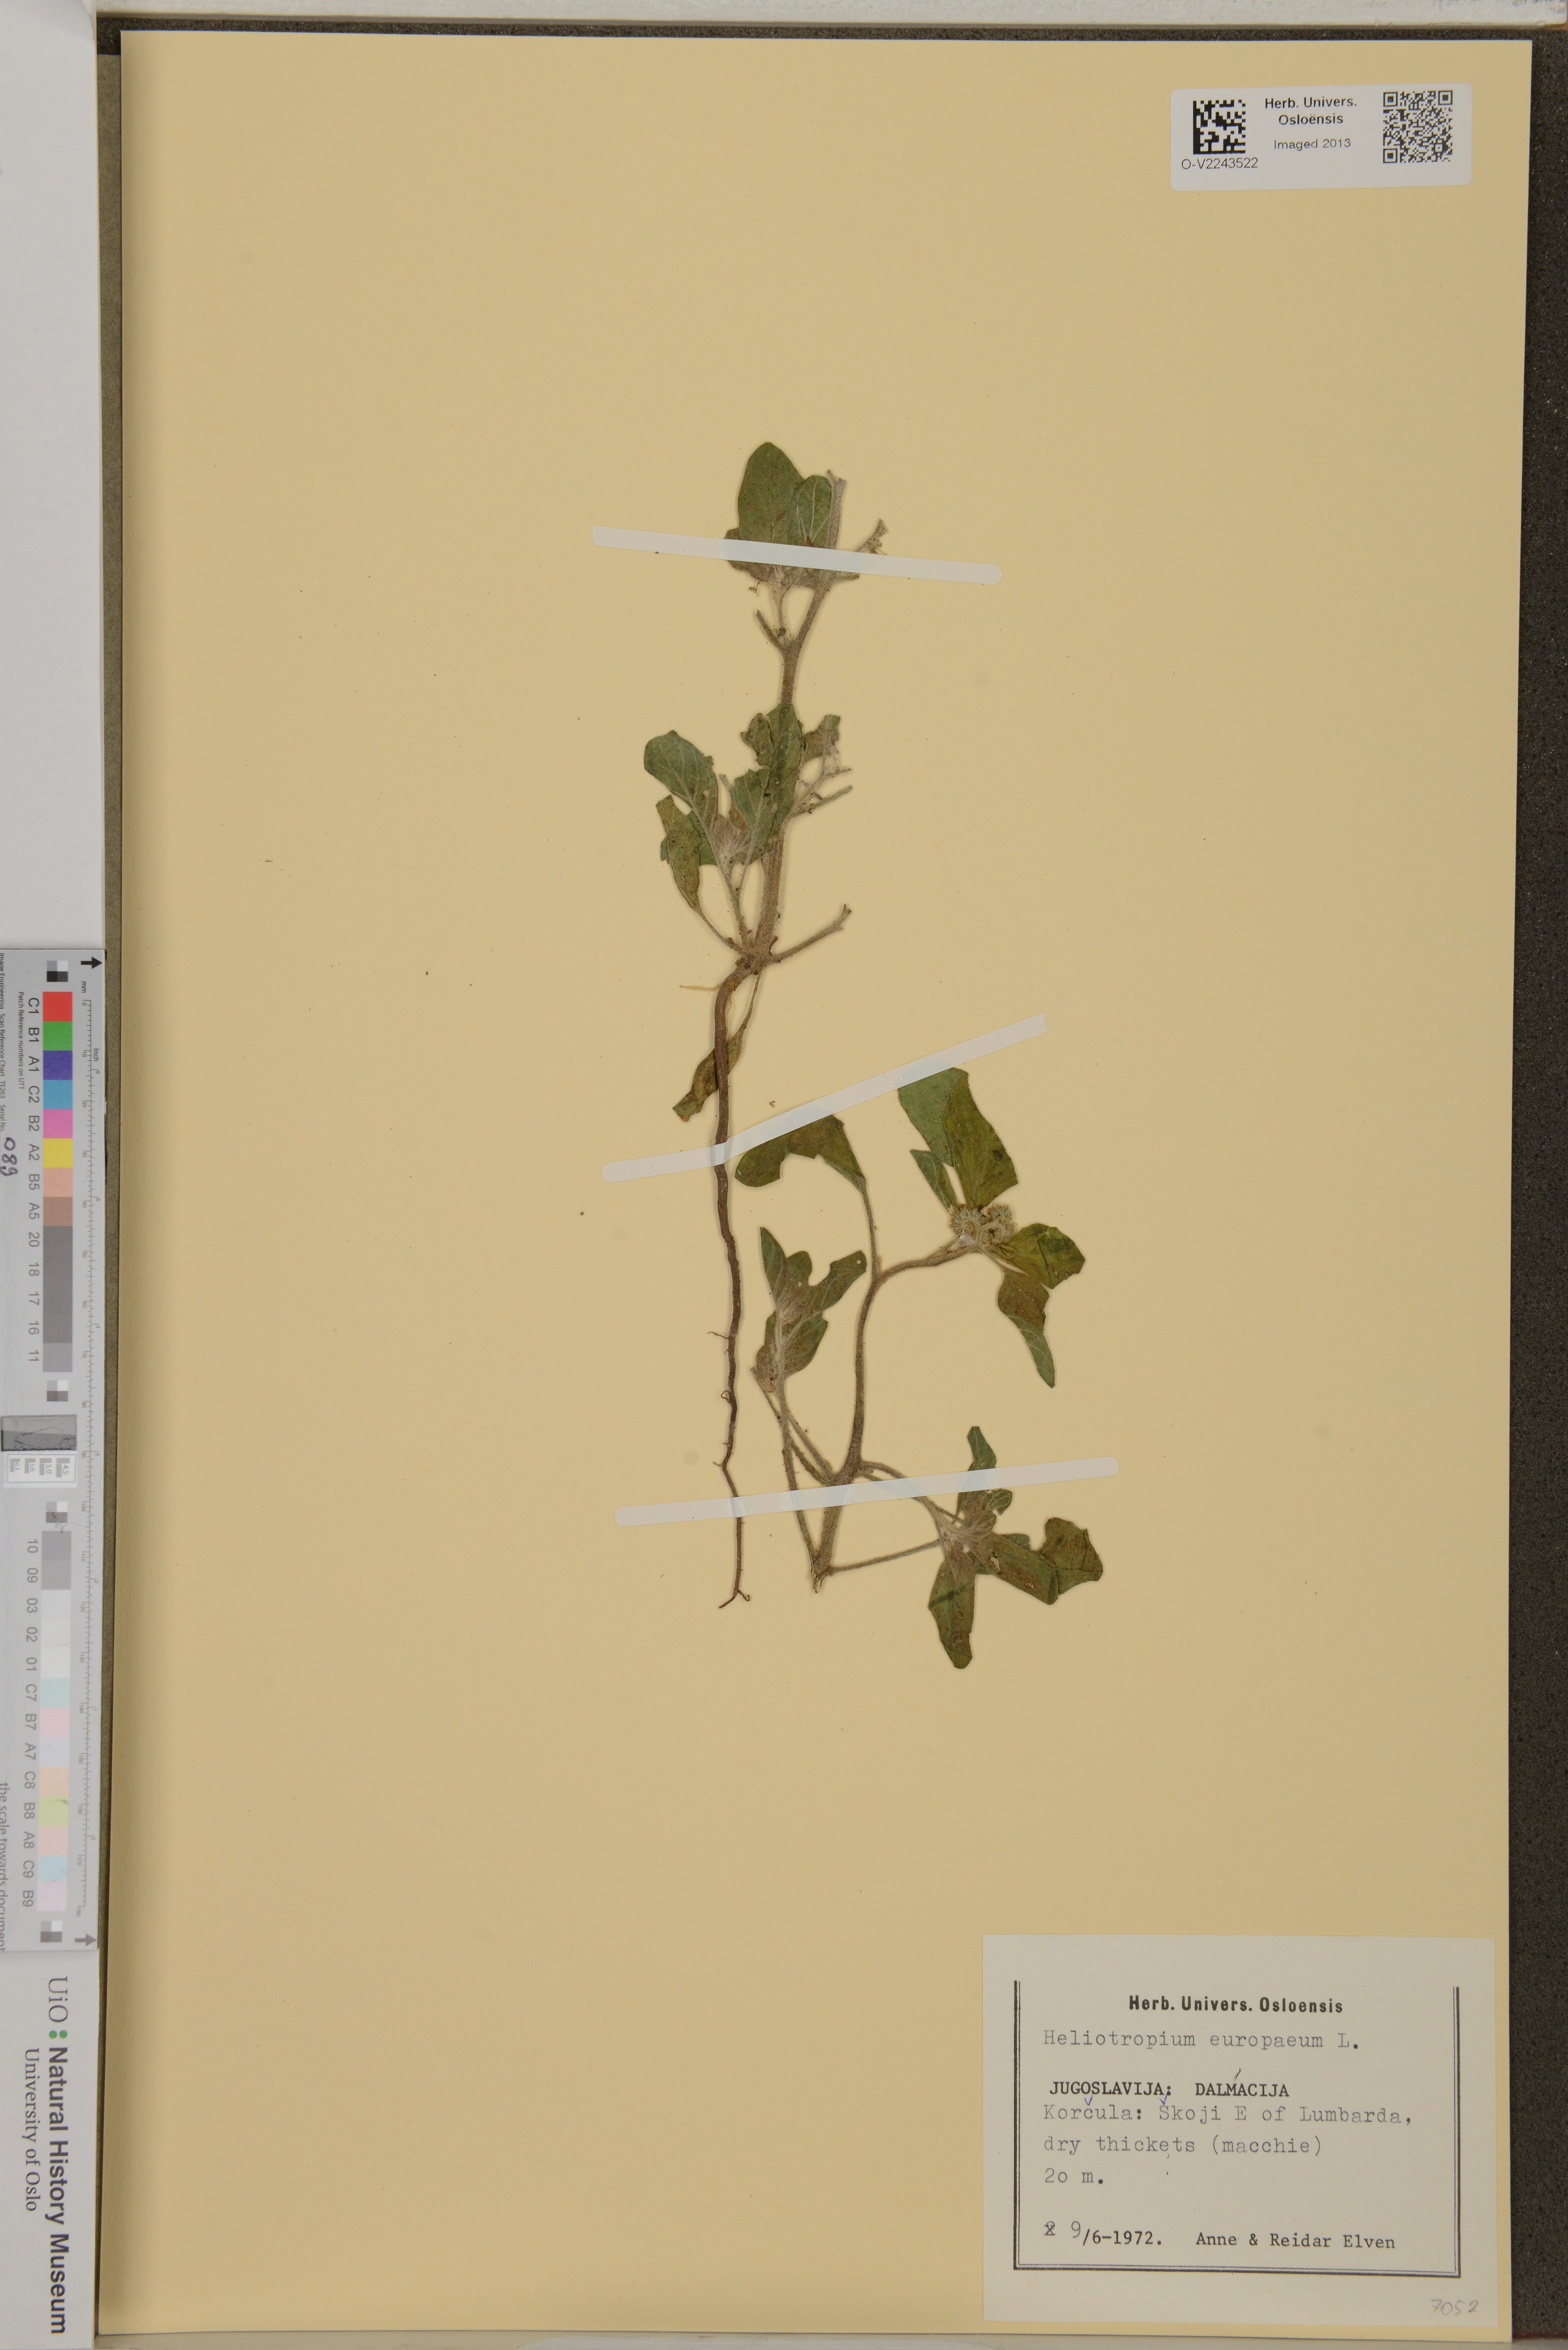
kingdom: Plantae
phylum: Tracheophyta
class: Magnoliopsida
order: Boraginales
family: Heliotropiaceae
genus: Heliotropium
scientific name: Heliotropium europaeum
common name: European heliotrope
